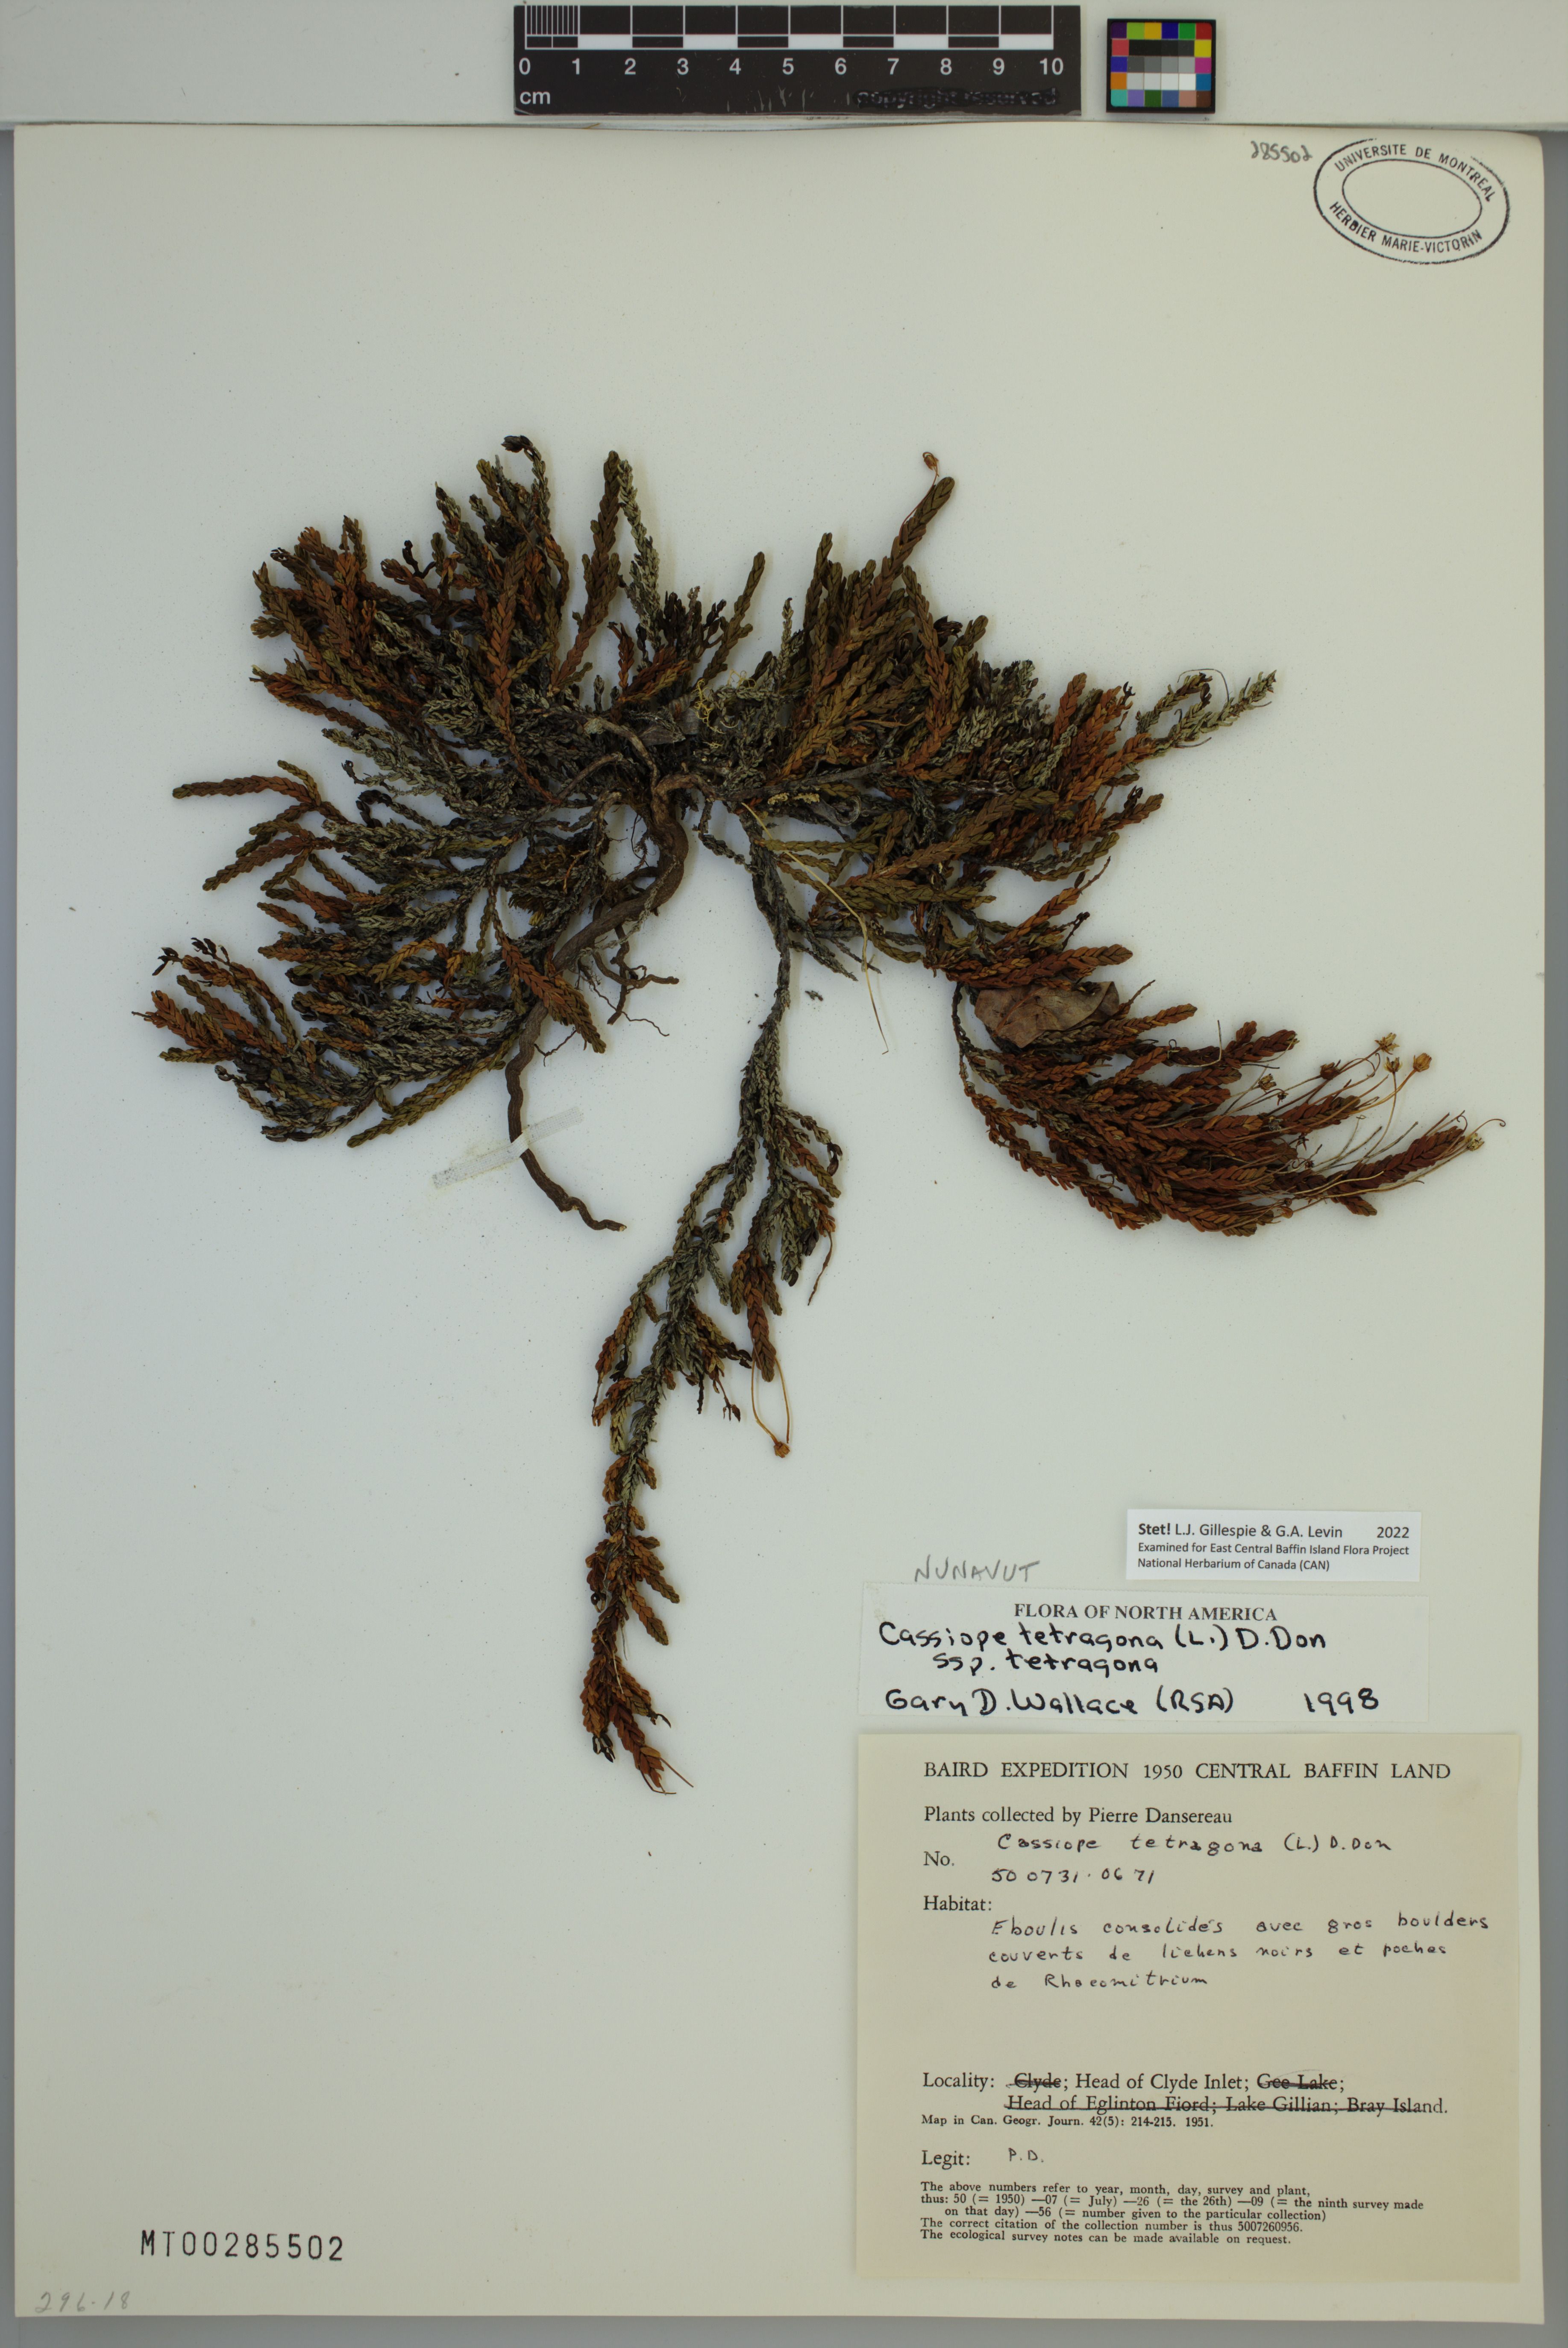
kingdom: Plantae
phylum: Tracheophyta
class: Magnoliopsida
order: Ericales
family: Ericaceae
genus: Cassiope
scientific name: Cassiope tetragona
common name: Arctic bell heather
